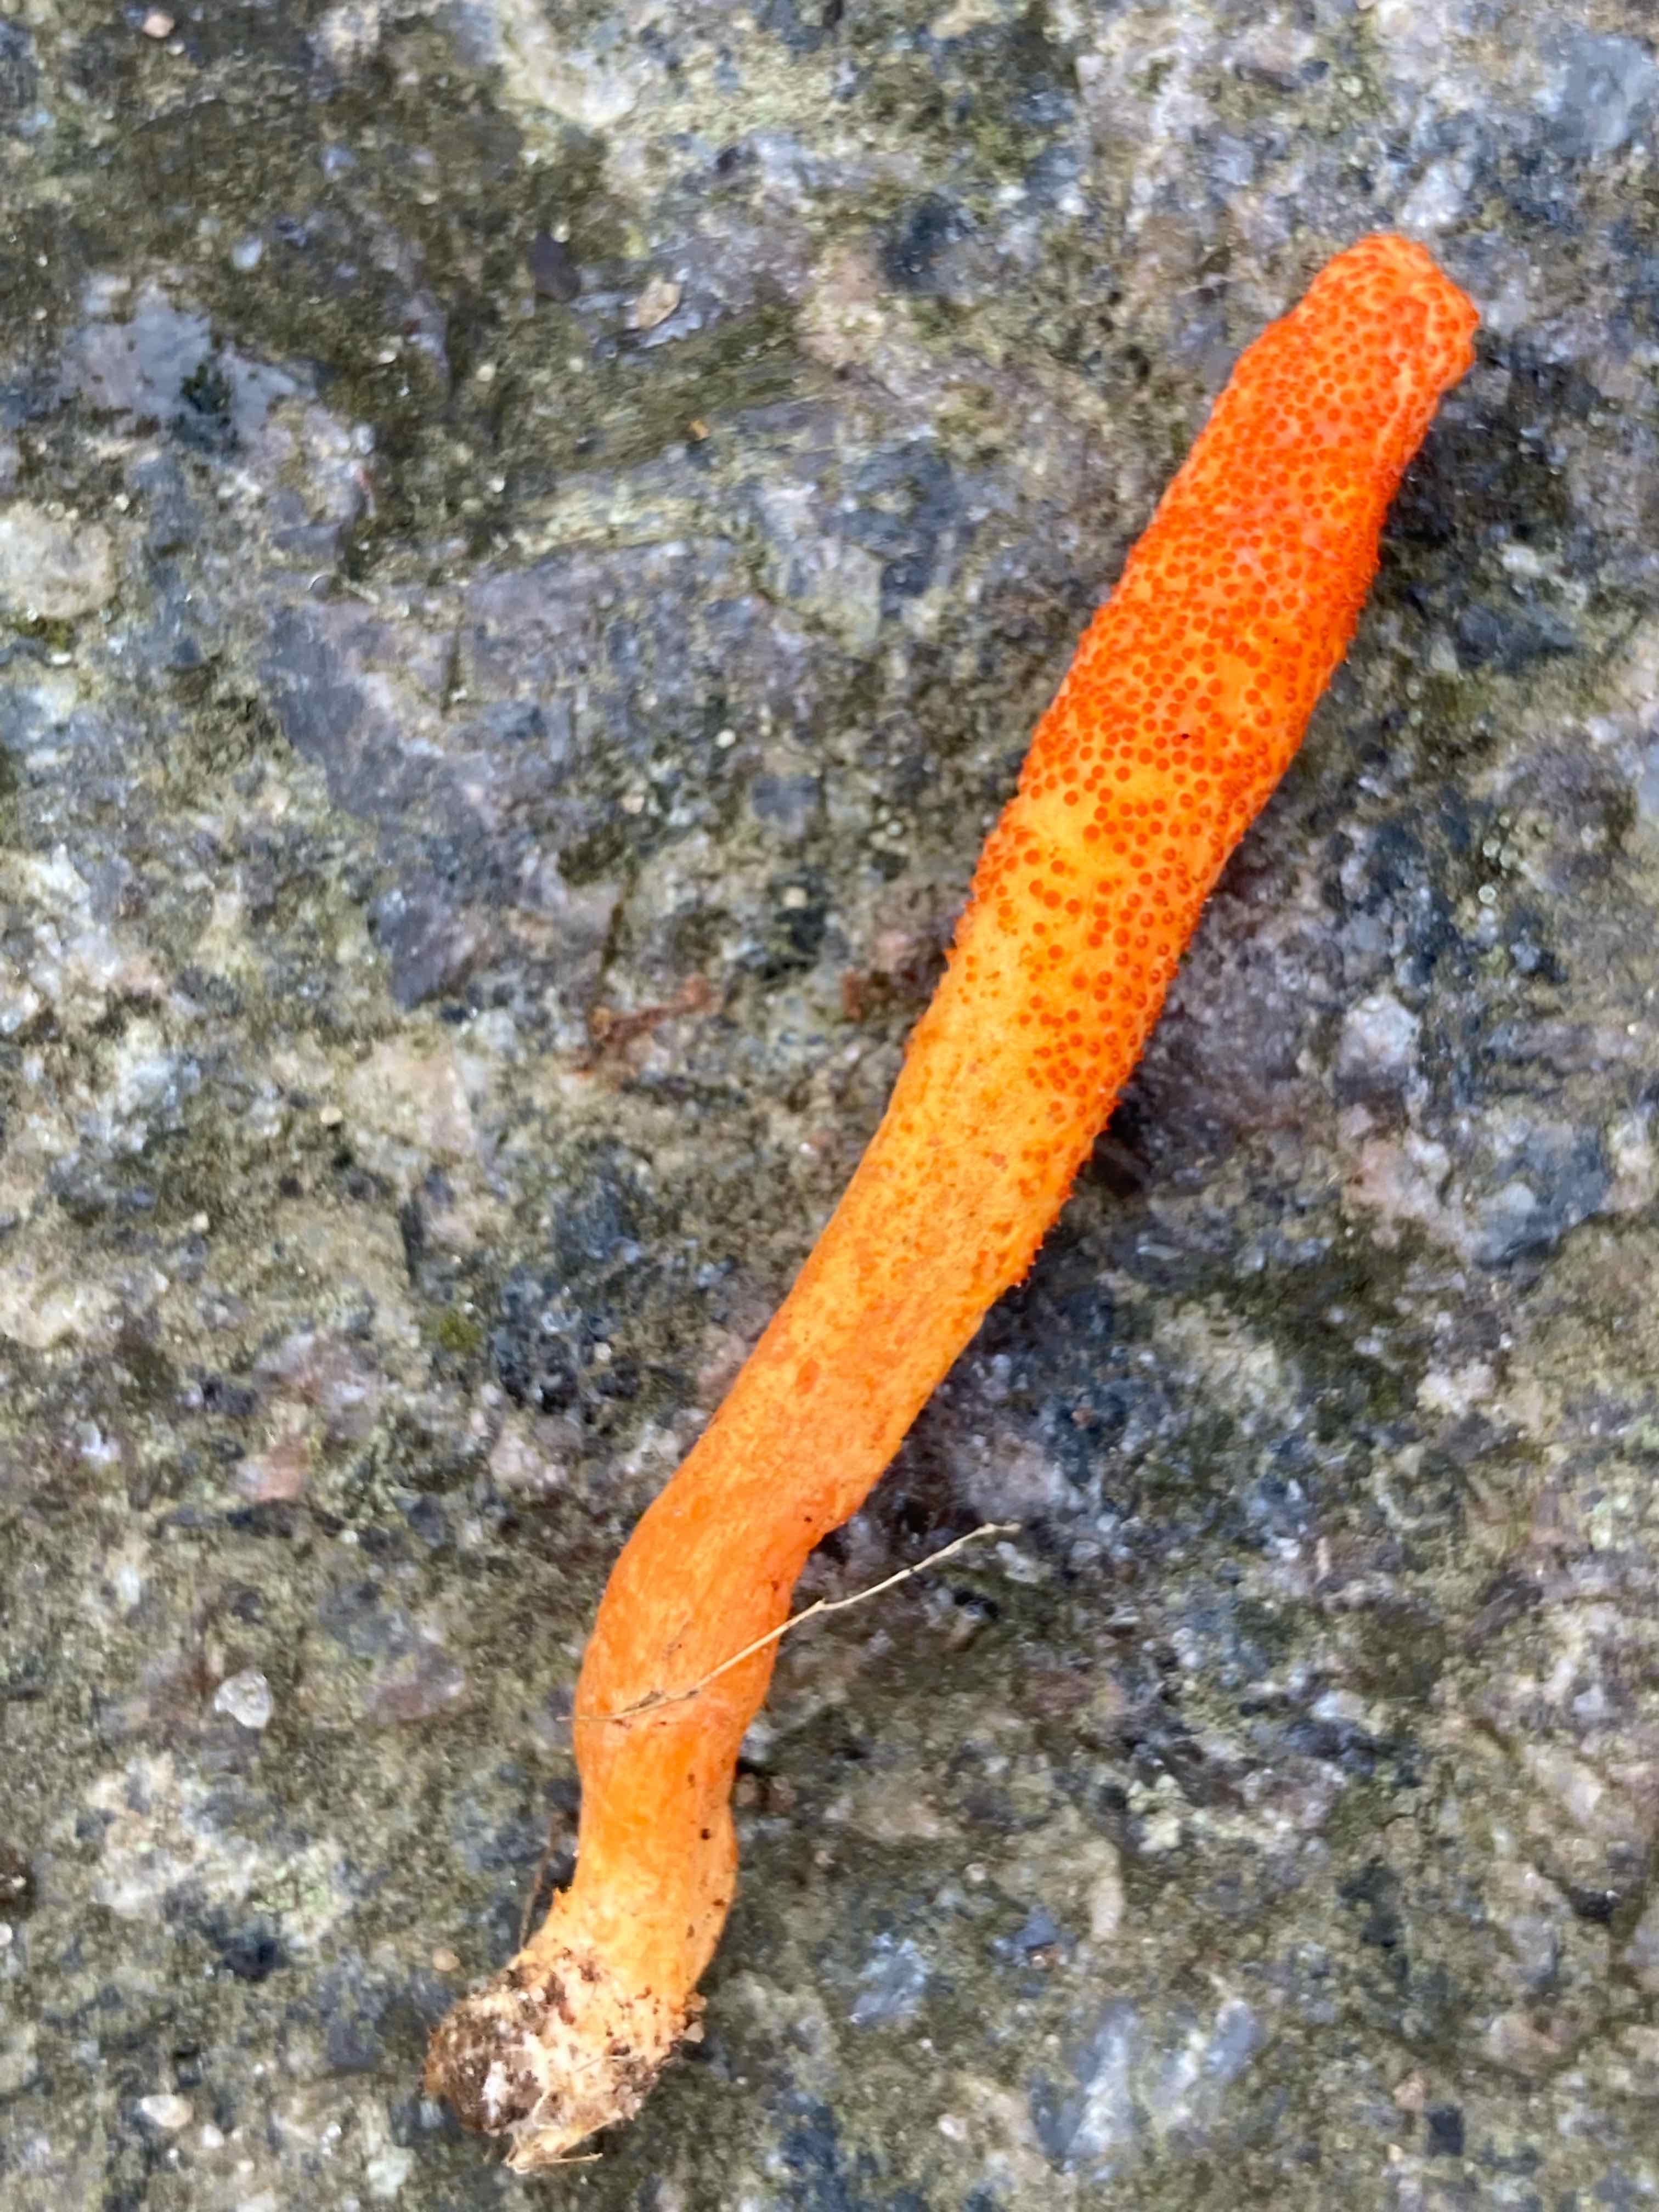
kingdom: Fungi
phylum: Ascomycota
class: Sordariomycetes
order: Hypocreales
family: Cordycipitaceae
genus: Cordyceps
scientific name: Cordyceps militaris
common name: puppe-snyltekølle
